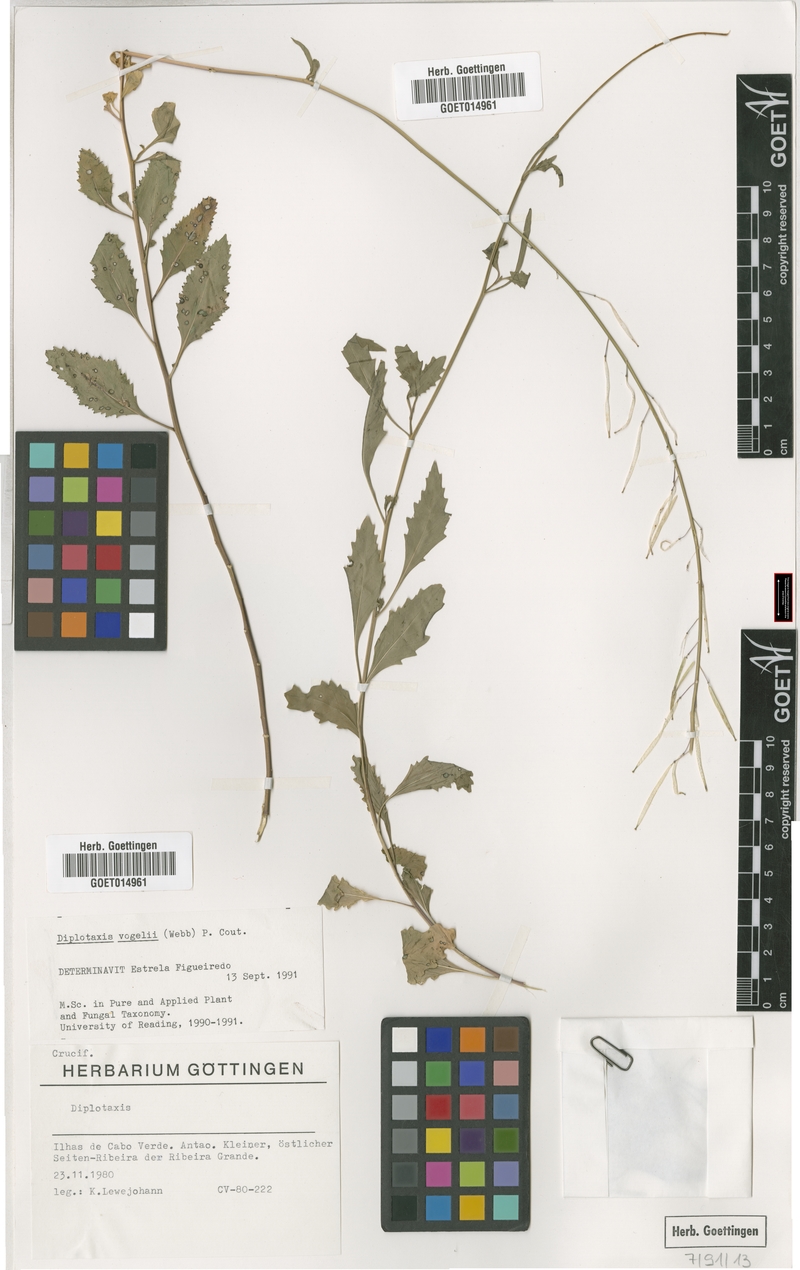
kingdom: Plantae
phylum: Tracheophyta
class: Magnoliopsida
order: Brassicales
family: Brassicaceae
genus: Diplotaxis
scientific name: Diplotaxis vogelii
